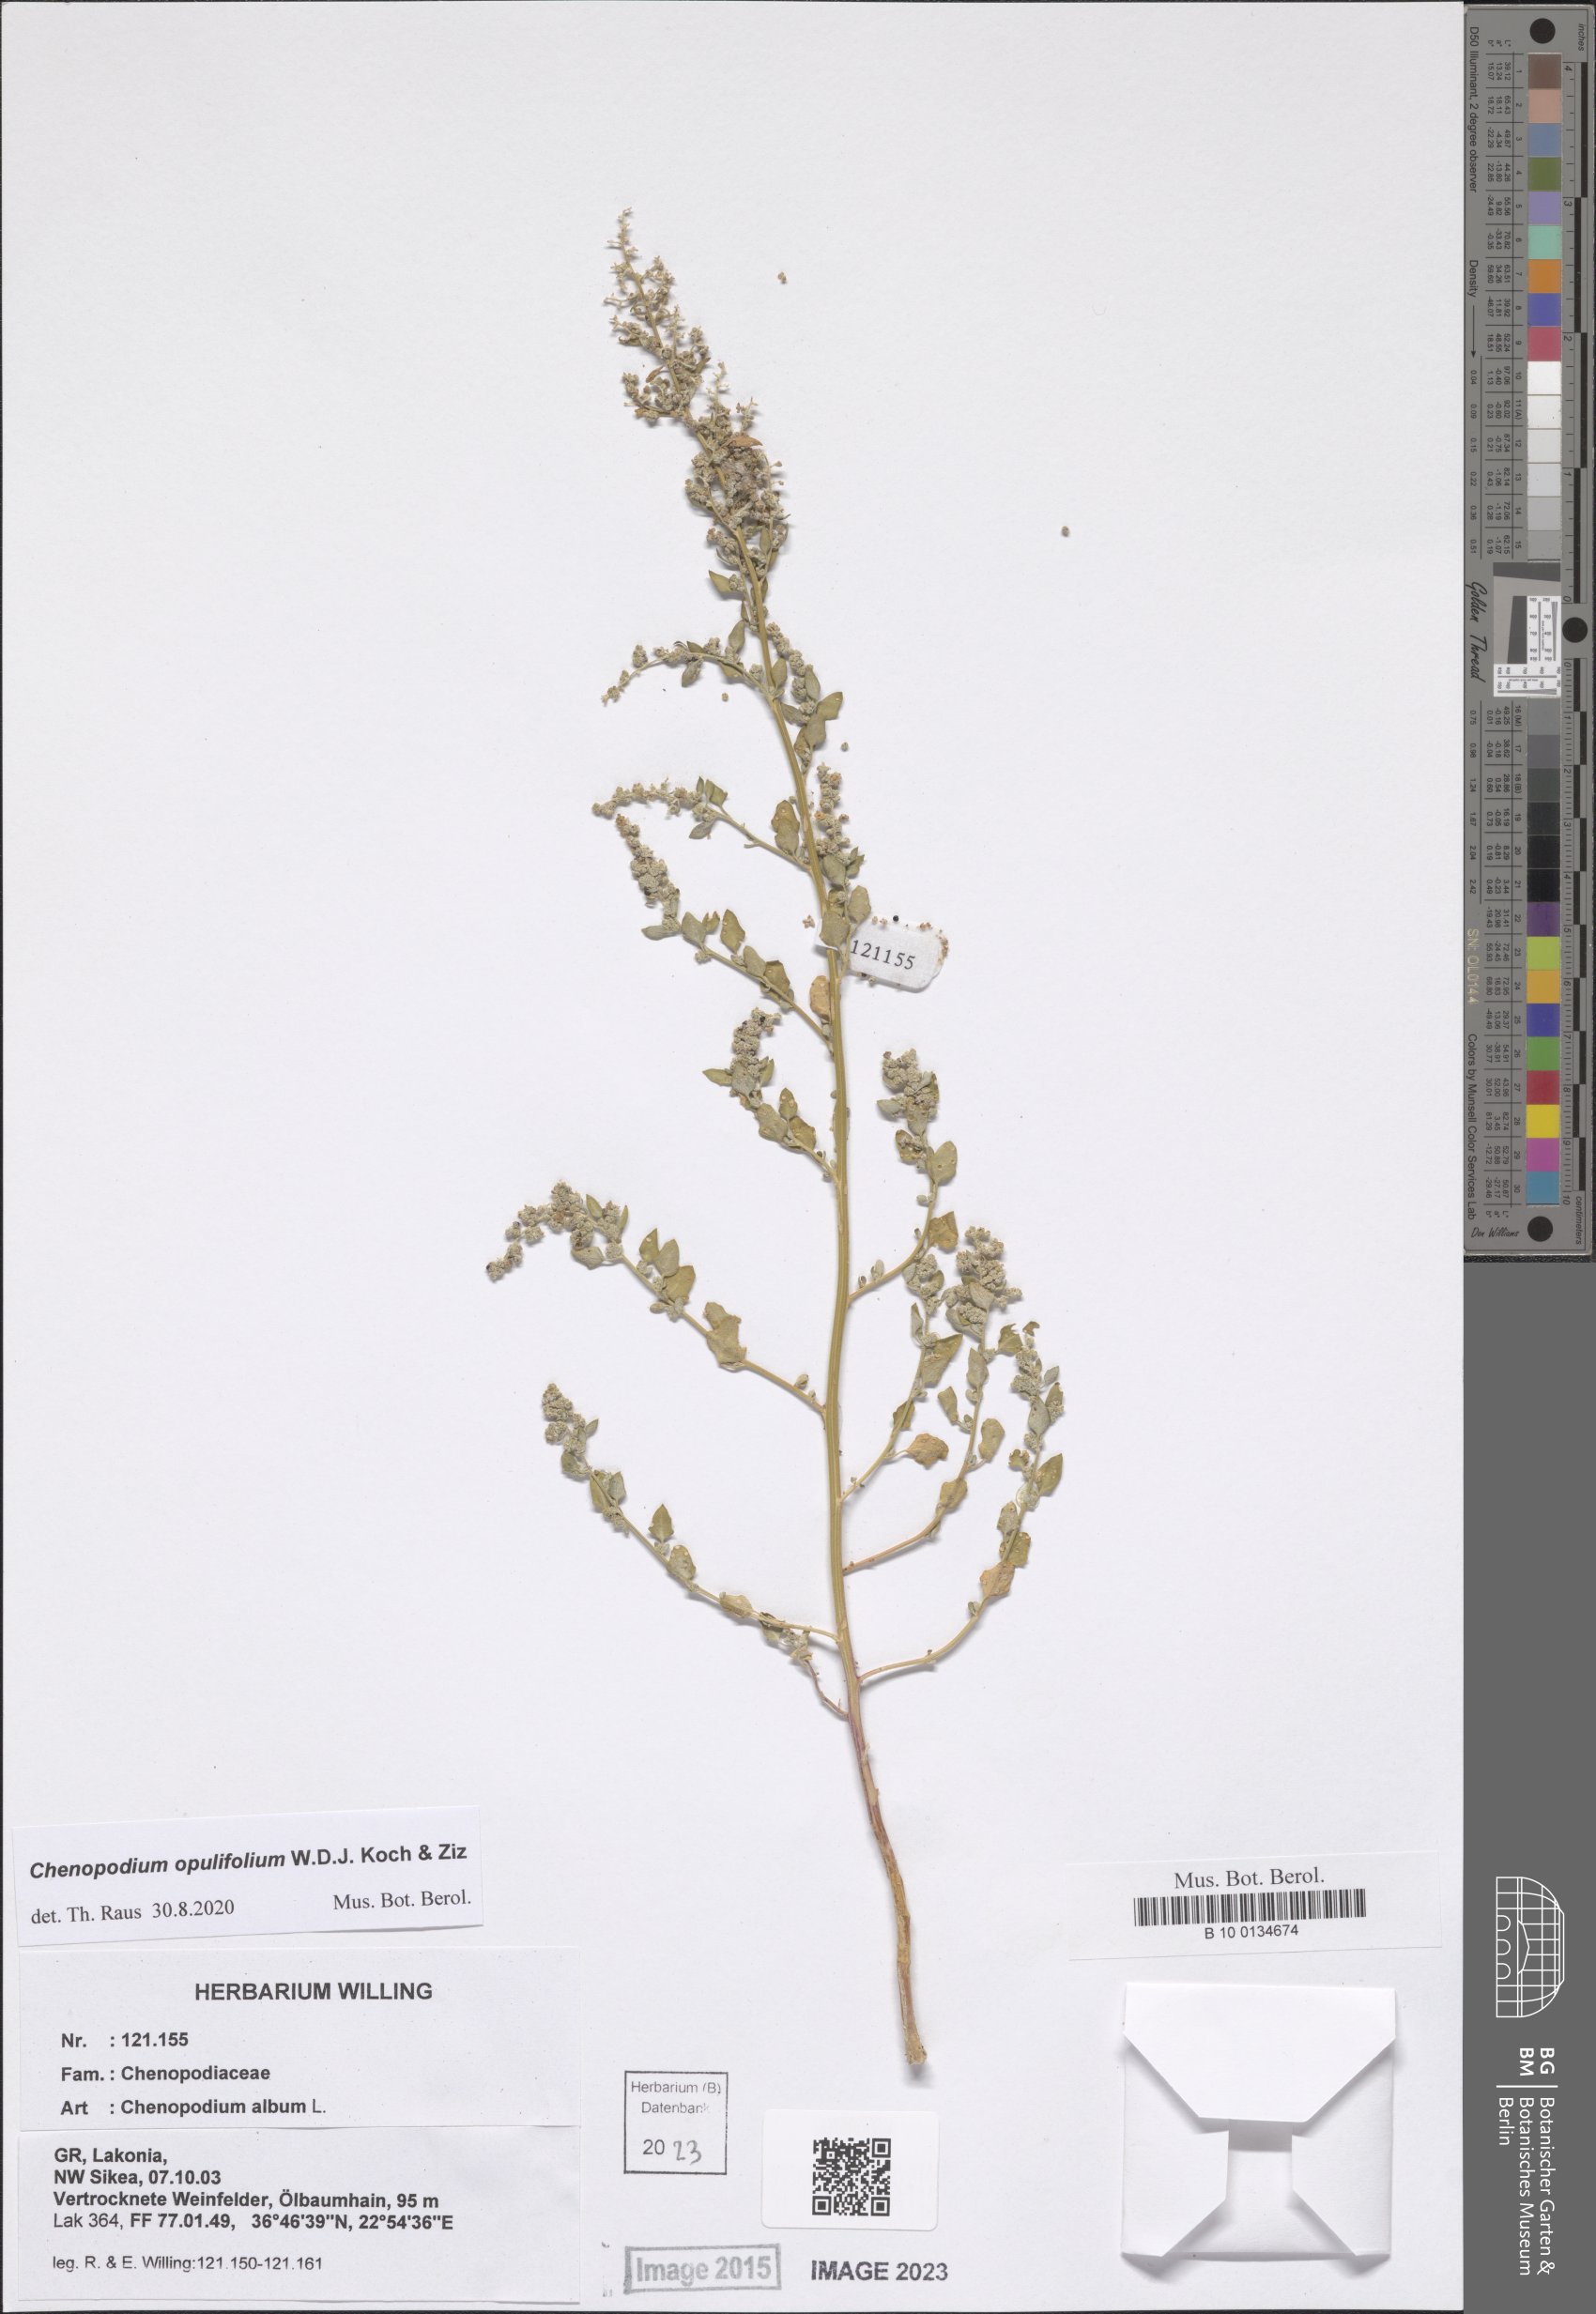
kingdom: Plantae
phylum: Tracheophyta
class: Magnoliopsida
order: Caryophyllales
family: Amaranthaceae
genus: Chenopodium
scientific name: Chenopodium opulifolium
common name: Grey goosefoot
